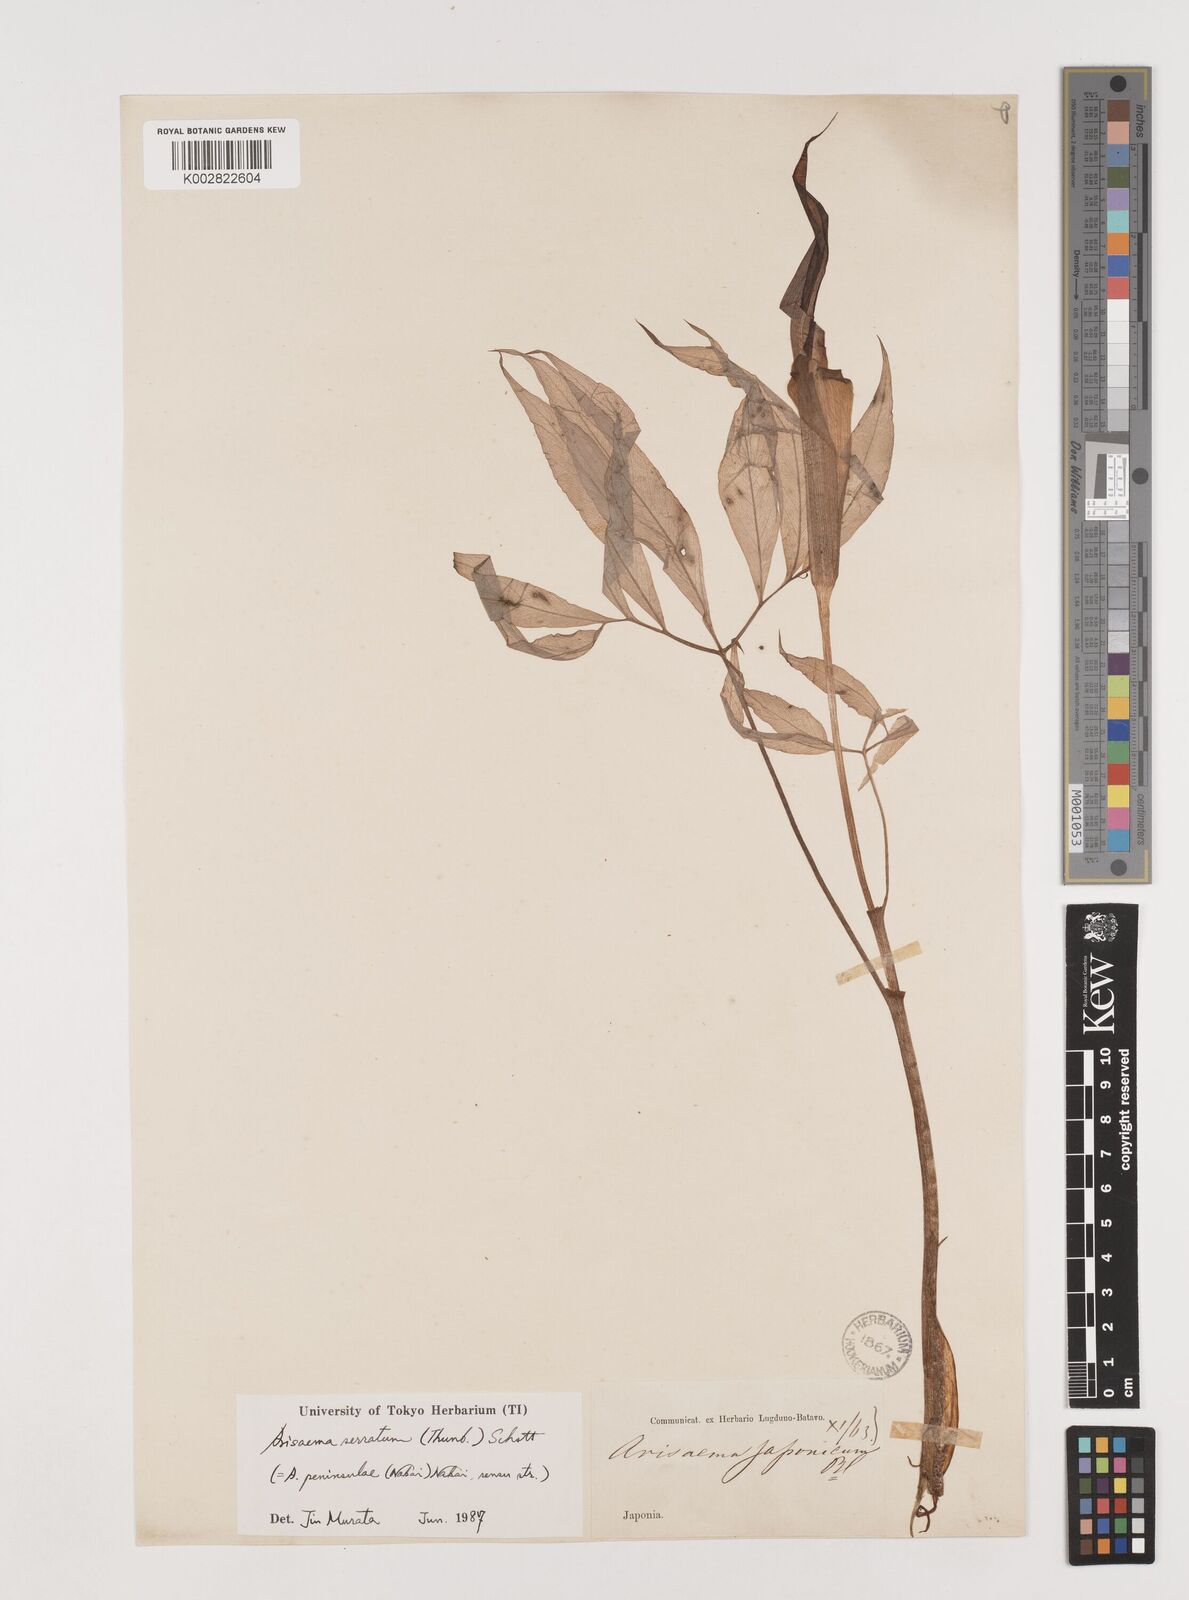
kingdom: Plantae
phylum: Tracheophyta
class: Liliopsida
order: Alismatales
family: Araceae
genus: Arisaema
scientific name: Arisaema serratum
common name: Japanese arisaema
